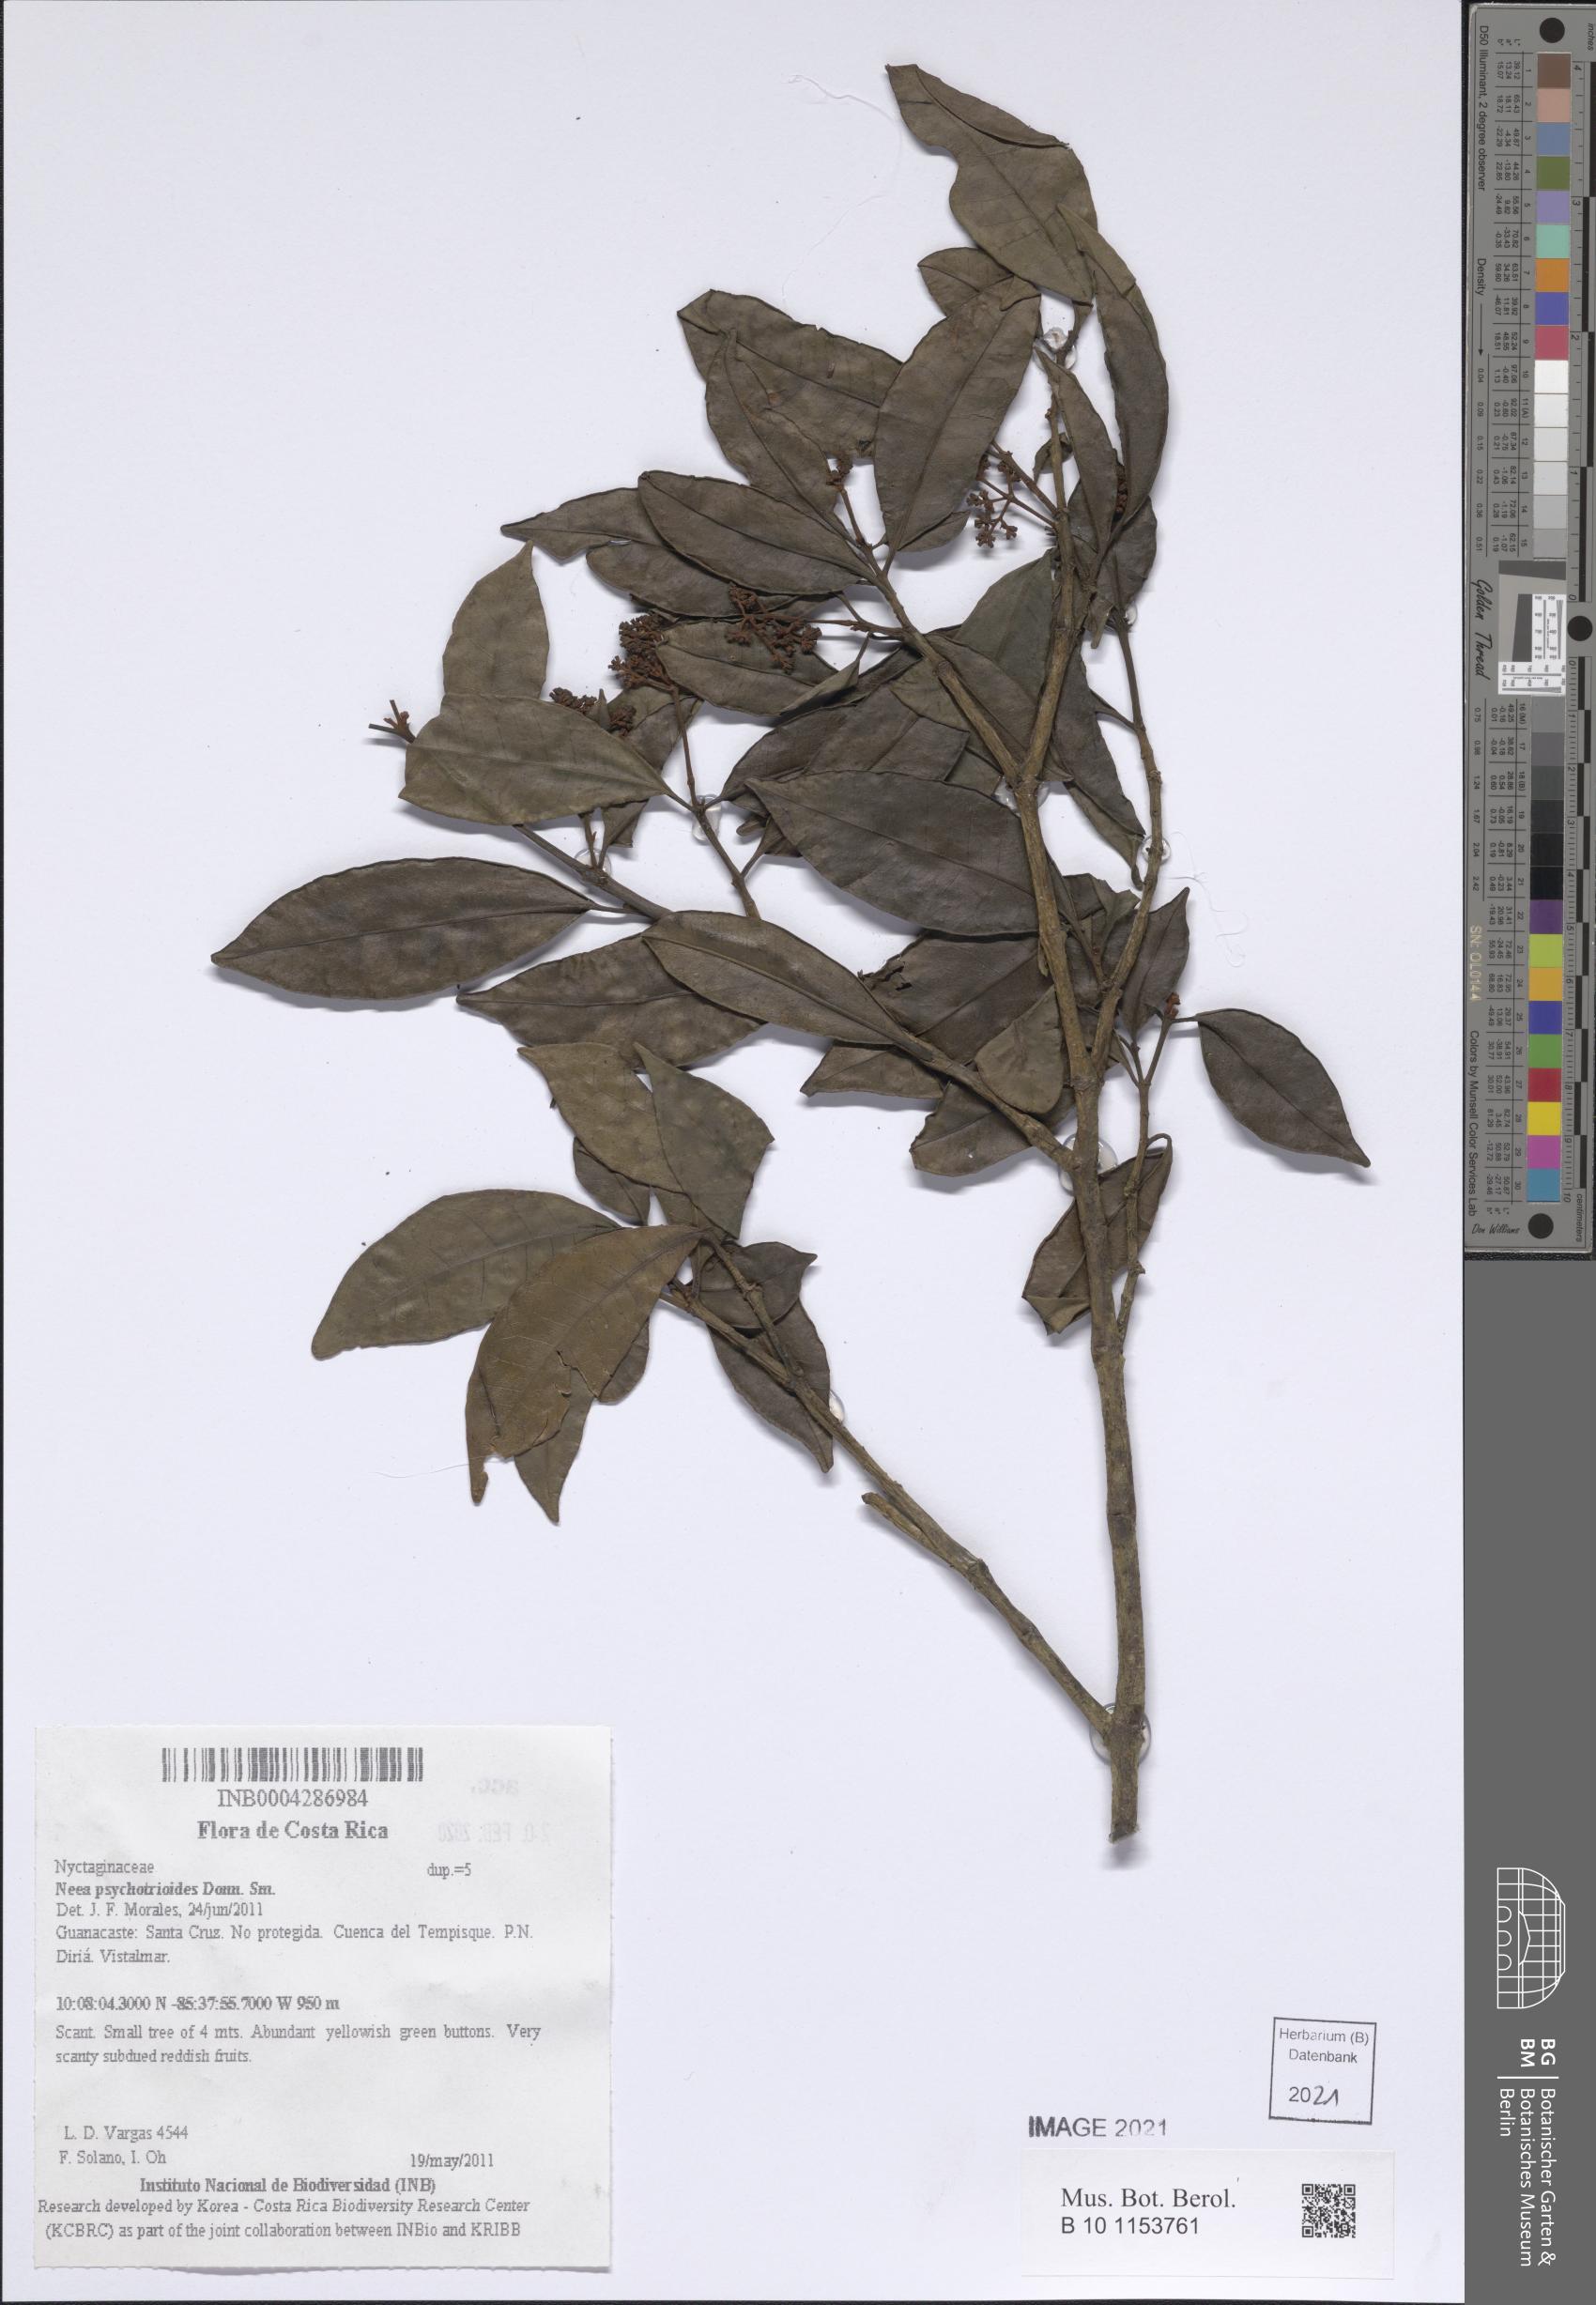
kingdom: Plantae
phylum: Tracheophyta
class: Magnoliopsida
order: Caryophyllales
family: Nyctaginaceae
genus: Neea
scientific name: Neea psychotrioides
